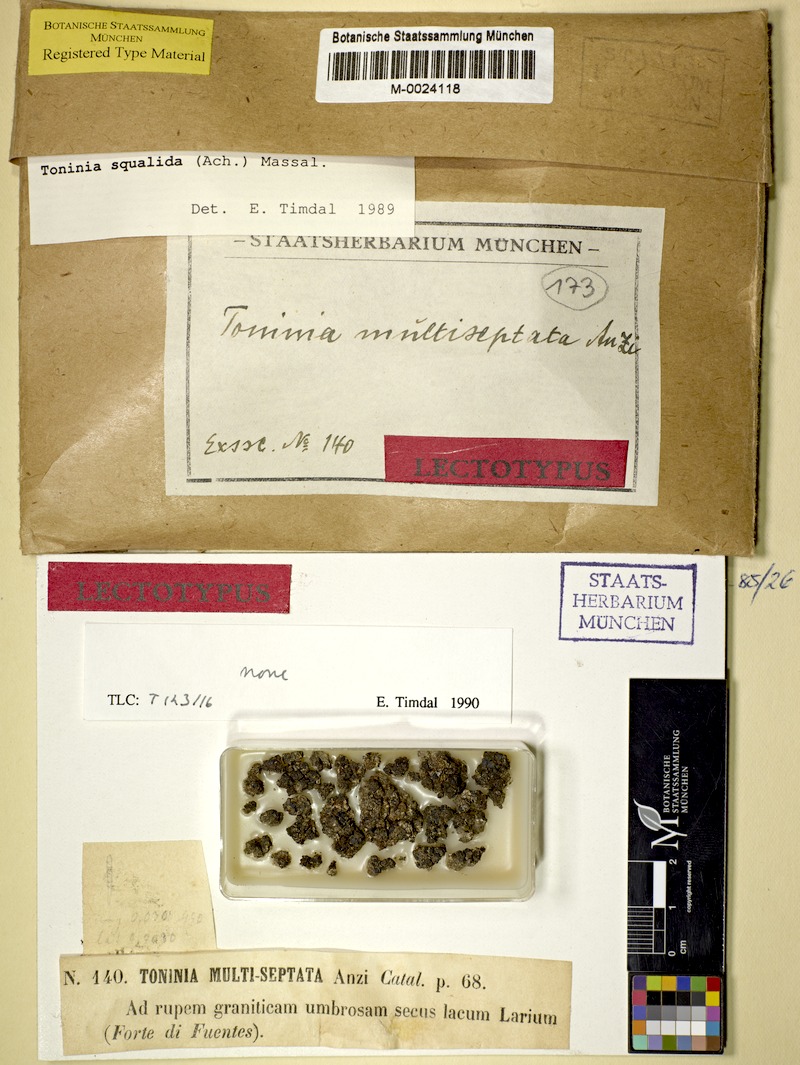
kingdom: Fungi
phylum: Ascomycota
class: Lecanoromycetes
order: Lecanorales
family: Ramalinaceae
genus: Toninia
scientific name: Toninia squalida
